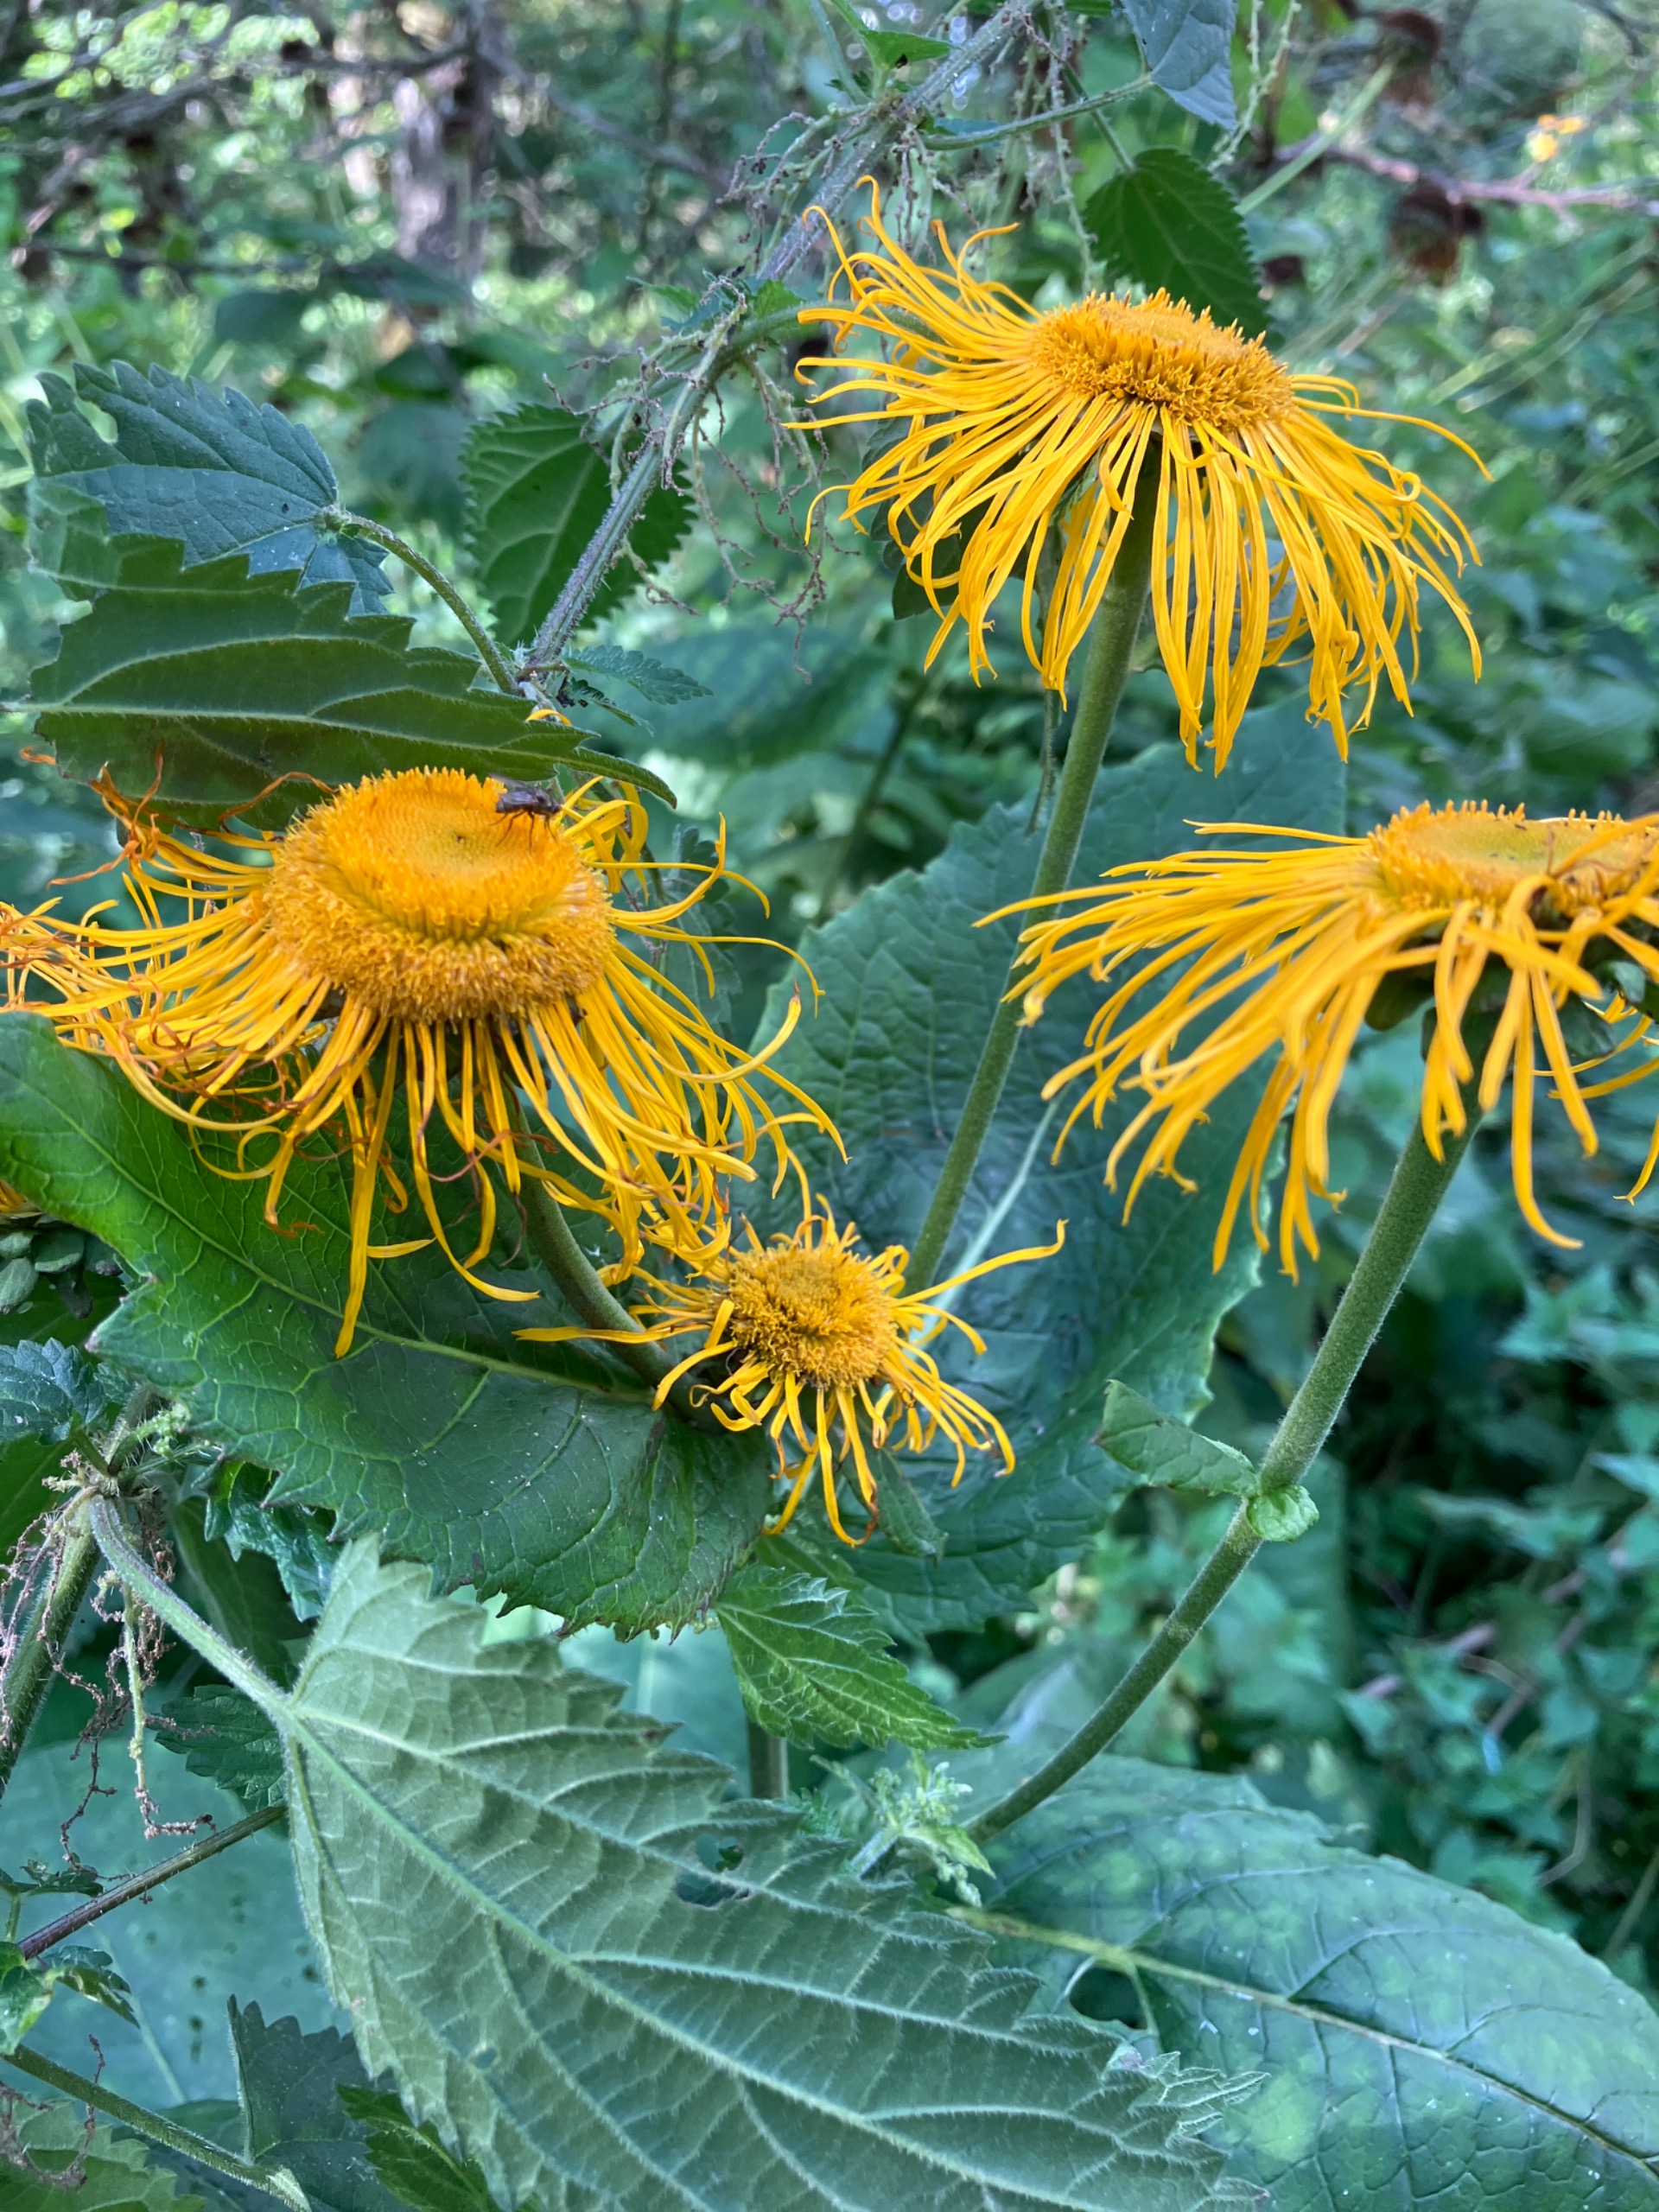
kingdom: Plantae
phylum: Tracheophyta
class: Magnoliopsida
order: Asterales
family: Asteraceae
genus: Telekia
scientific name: Telekia speciosa
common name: Tusindstråle
